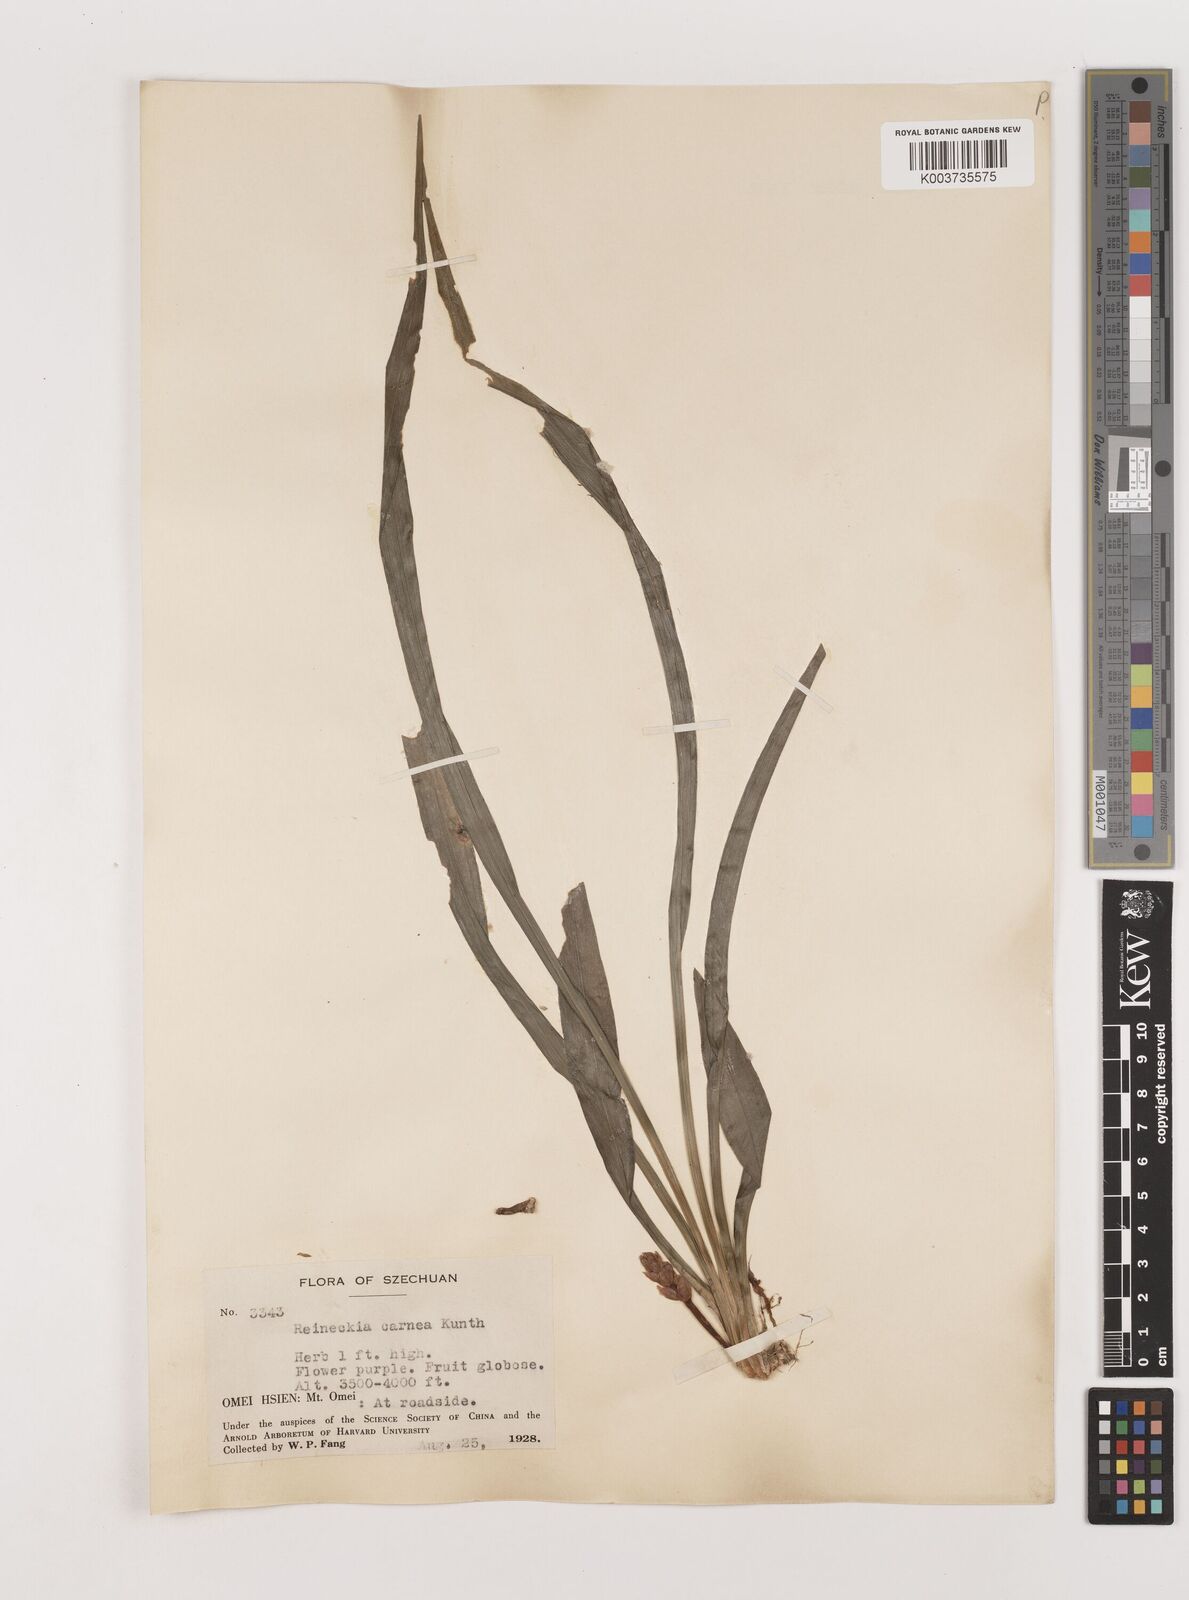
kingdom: Plantae
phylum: Tracheophyta
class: Liliopsida
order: Asparagales
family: Asparagaceae
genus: Reineckea
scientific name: Reineckea carnea
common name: Reineckea
